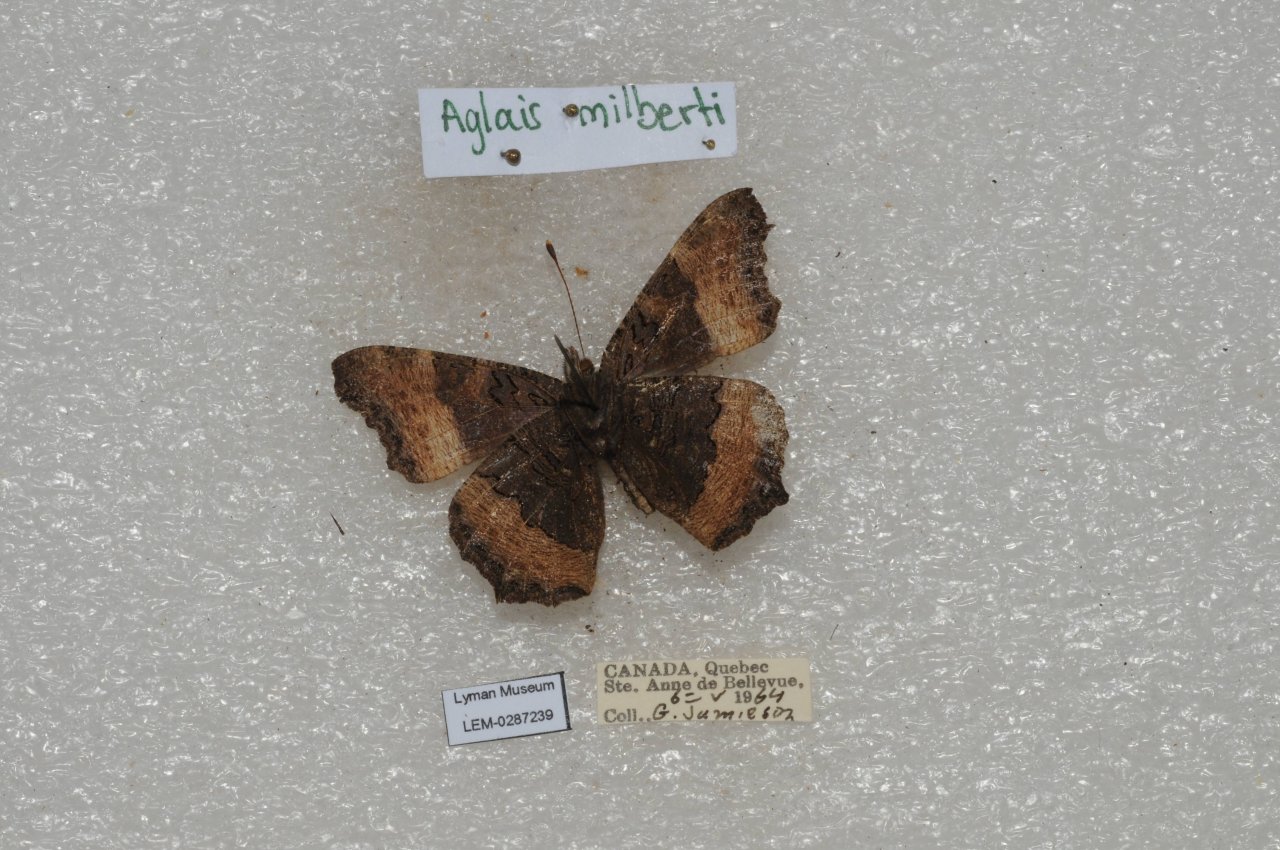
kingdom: Animalia
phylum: Arthropoda
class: Insecta
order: Lepidoptera
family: Nymphalidae
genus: Aglais
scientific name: Aglais milberti
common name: Milbert's Tortoiseshell
